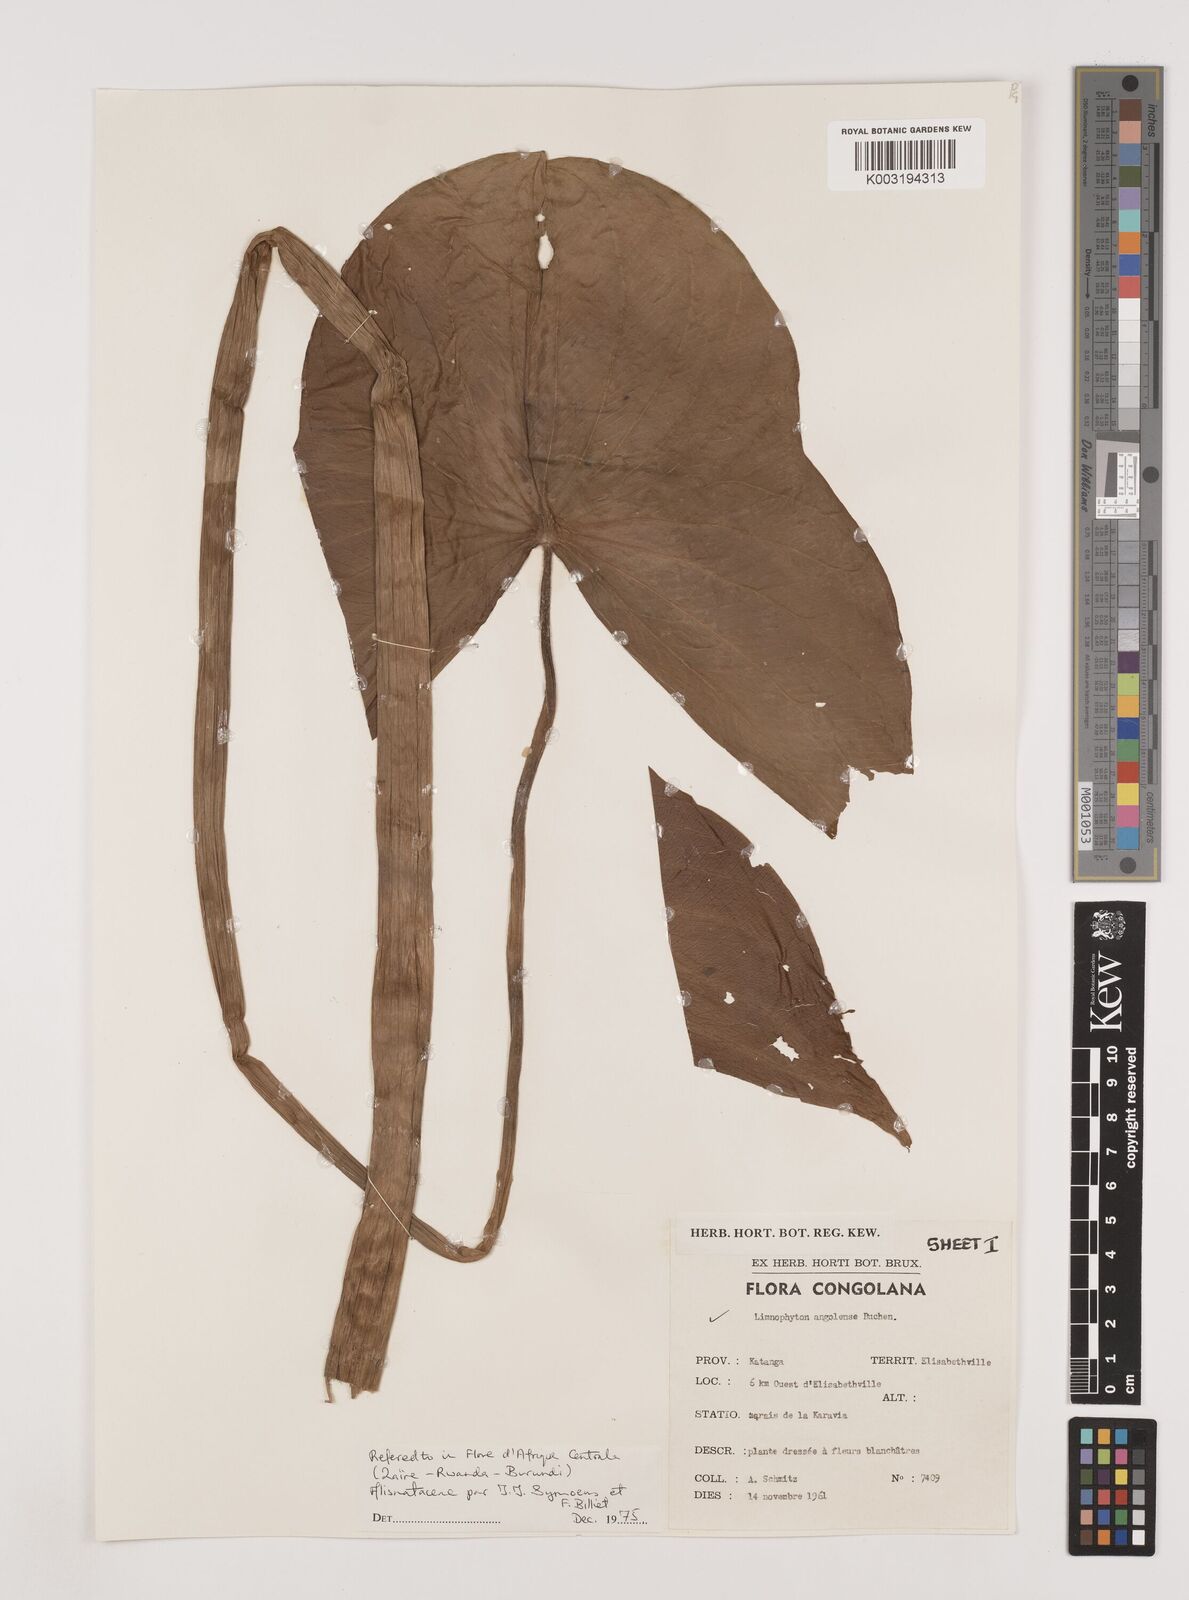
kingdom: Plantae
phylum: Tracheophyta
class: Liliopsida
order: Alismatales
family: Alismataceae
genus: Limnophyton
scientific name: Limnophyton angolense
